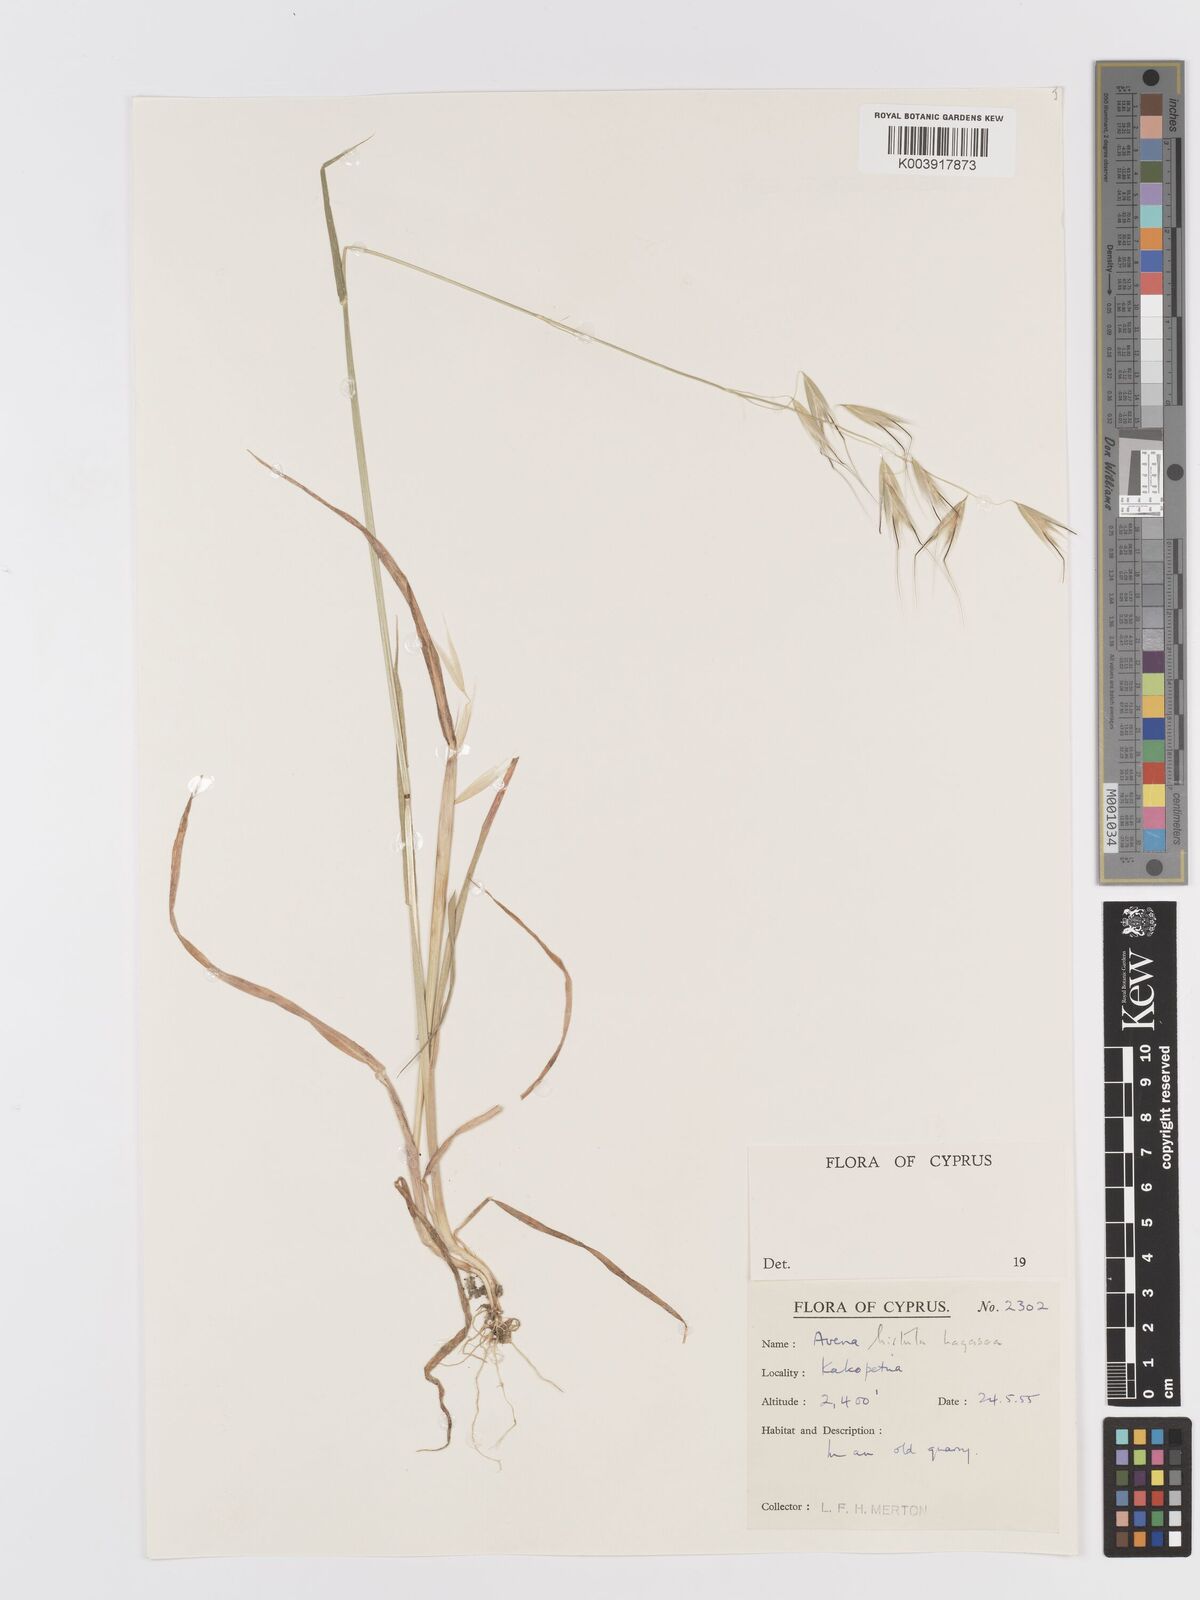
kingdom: Plantae
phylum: Tracheophyta
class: Liliopsida
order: Poales
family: Poaceae
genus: Avena
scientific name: Avena
